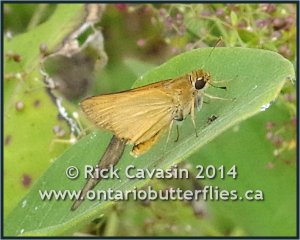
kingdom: Animalia
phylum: Arthropoda
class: Insecta
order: Lepidoptera
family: Hesperiidae
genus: Atrytone
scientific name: Atrytone delaware
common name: Delaware Skipper
